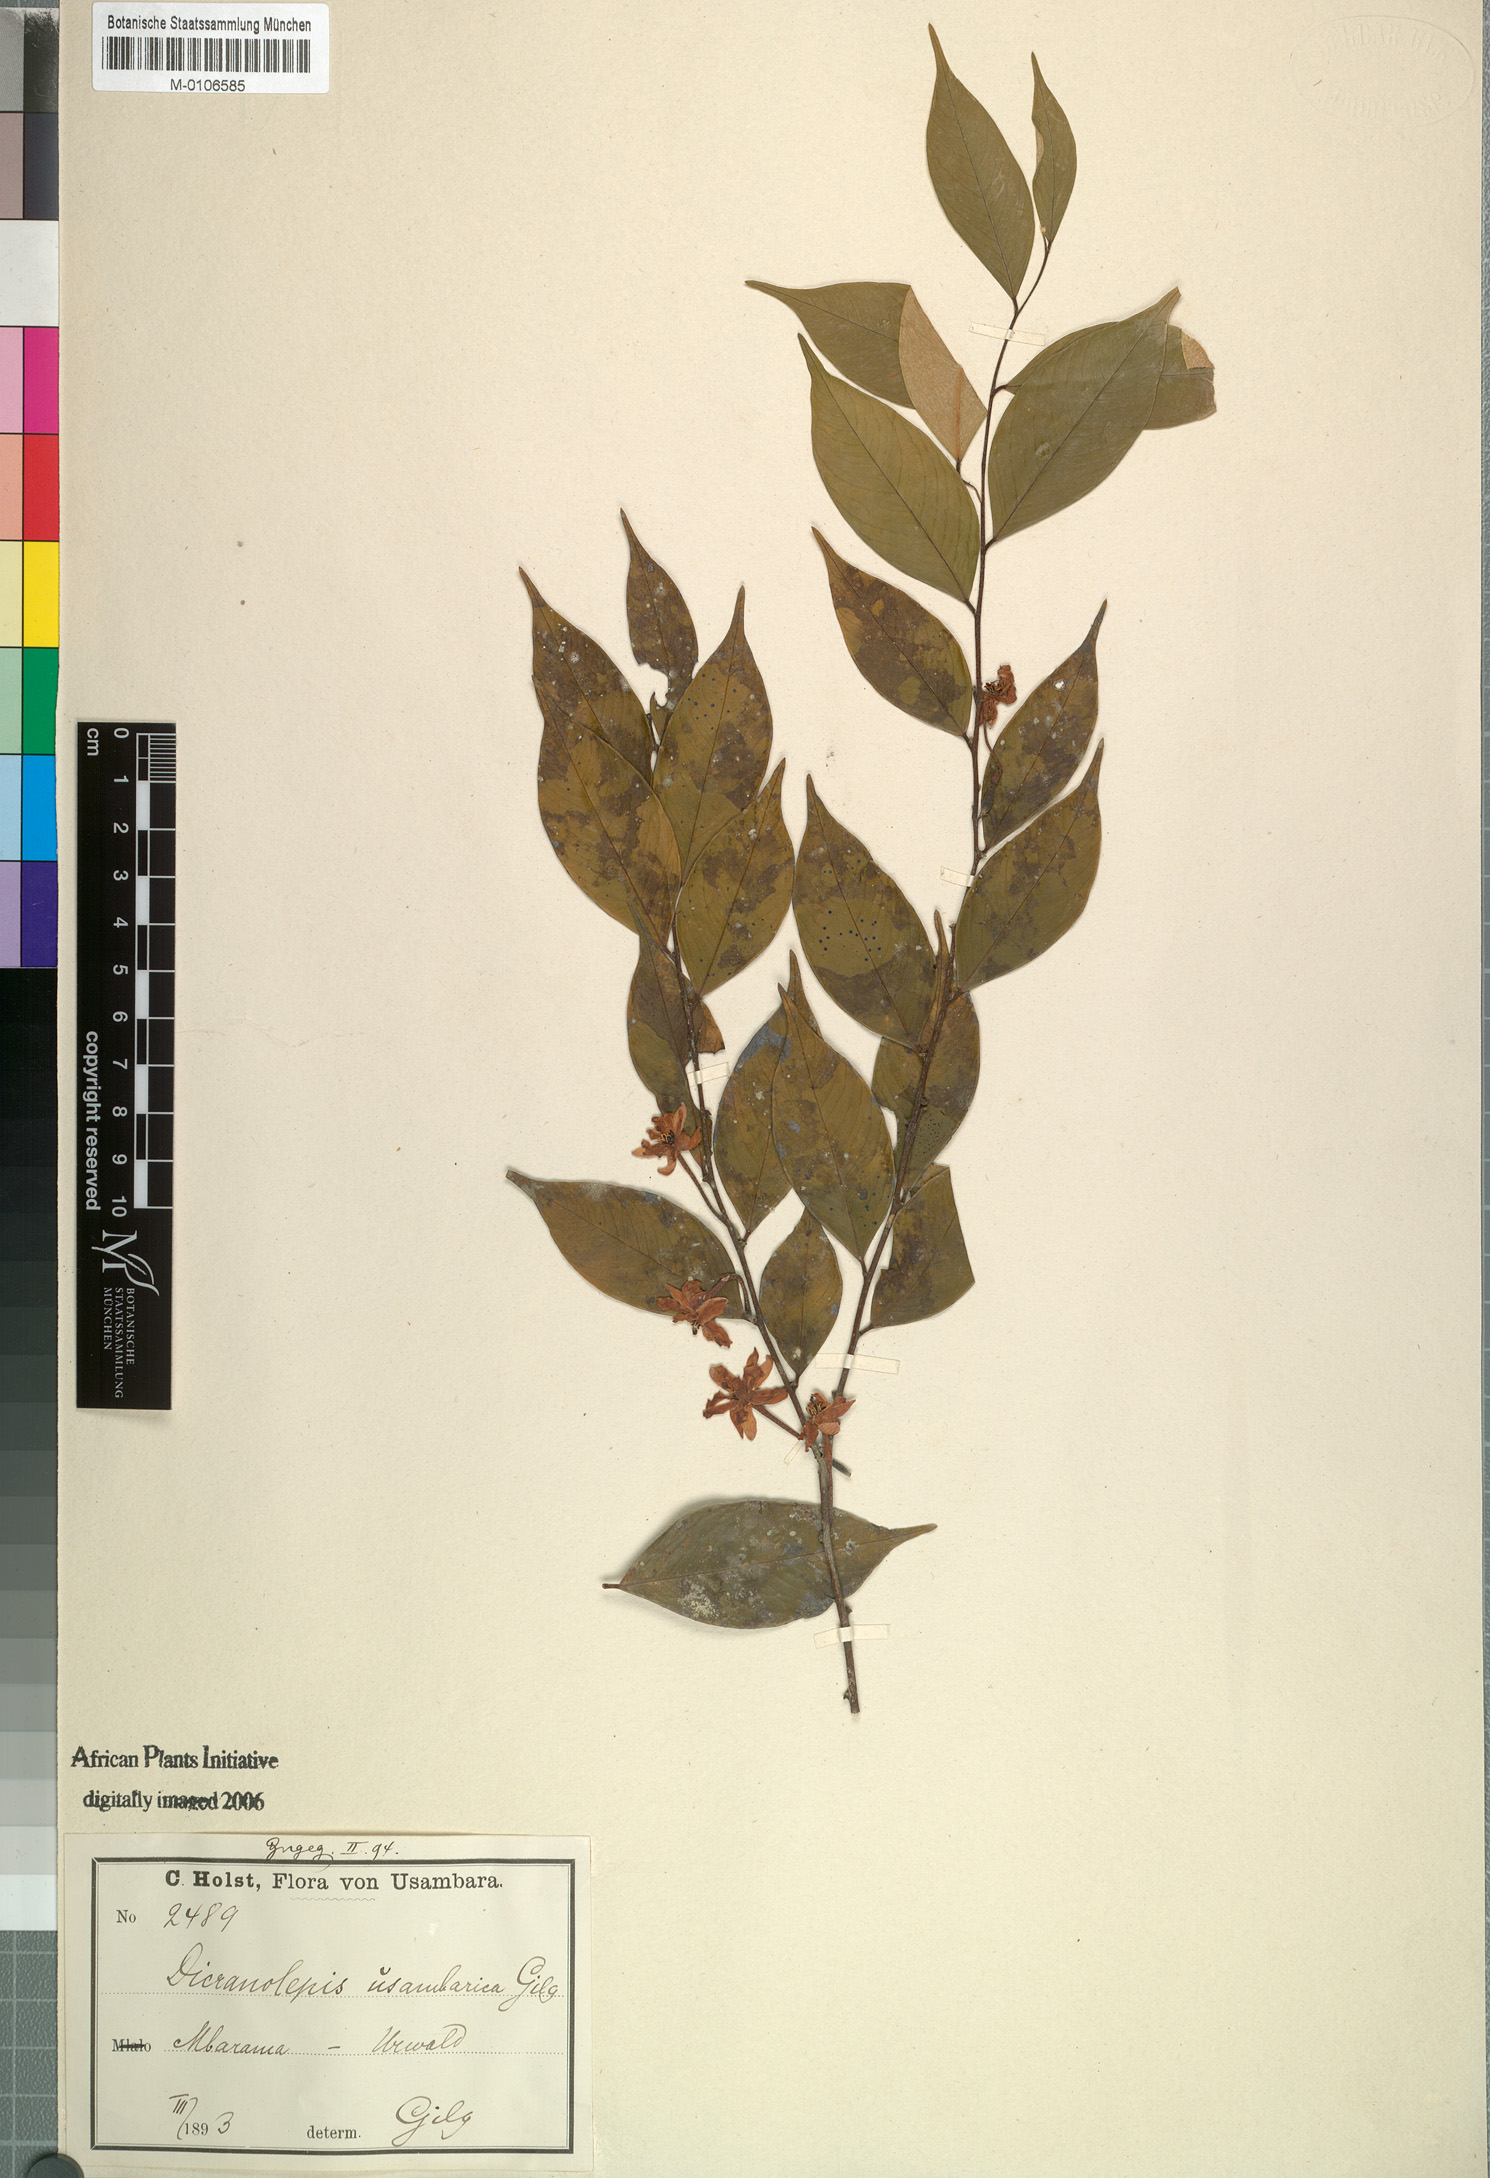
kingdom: Plantae
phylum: Tracheophyta
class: Magnoliopsida
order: Malvales
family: Thymelaeaceae
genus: Dicranolepis
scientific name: Dicranolepis usambarica
